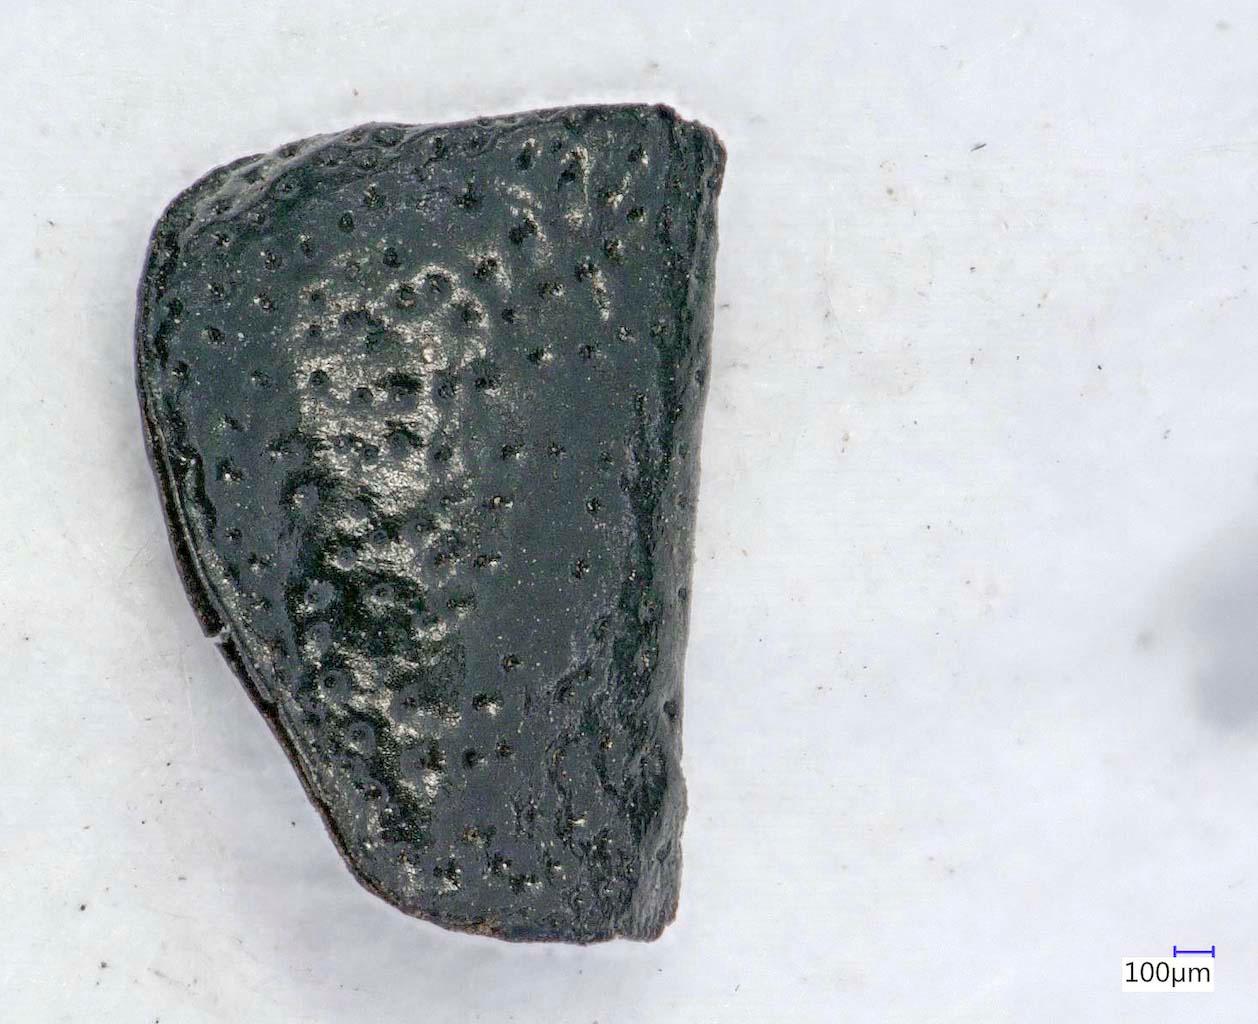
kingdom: Animalia
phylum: Arthropoda
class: Insecta
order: Coleoptera
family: Carabidae
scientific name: Carabidae
